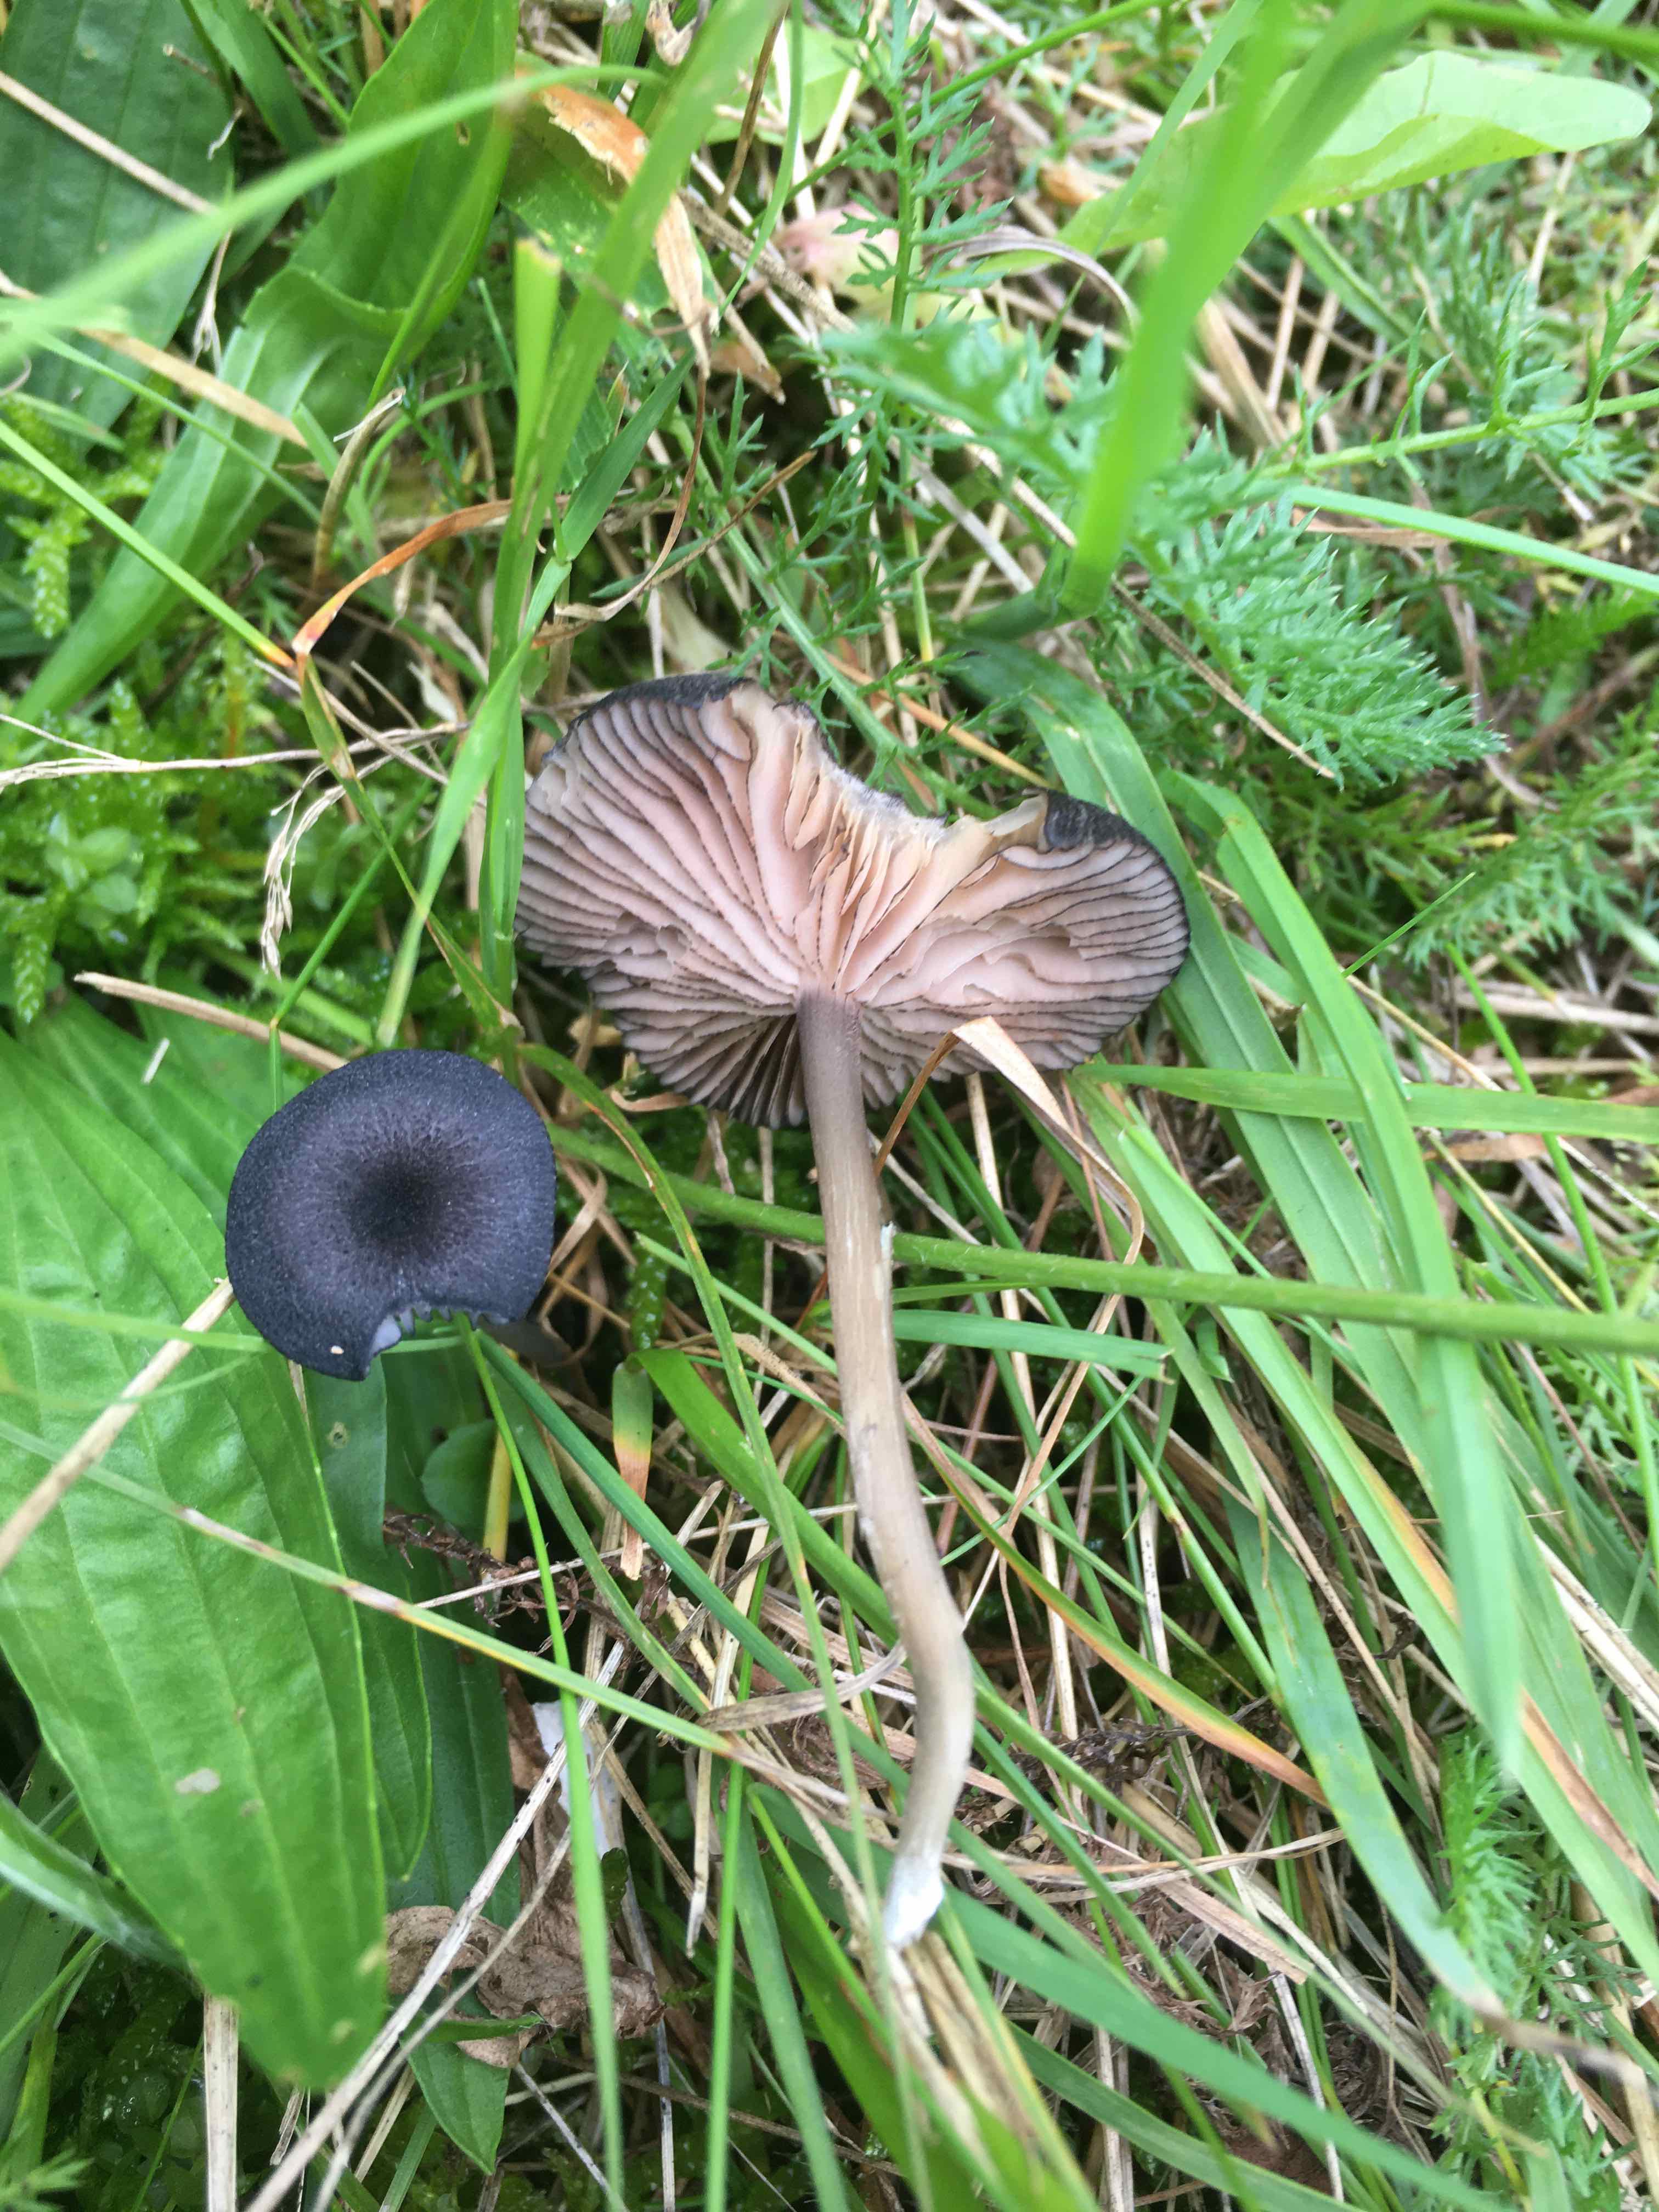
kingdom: Fungi
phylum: Basidiomycota
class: Agaricomycetes
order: Agaricales
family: Entolomataceae
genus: Entoloma
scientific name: Entoloma
